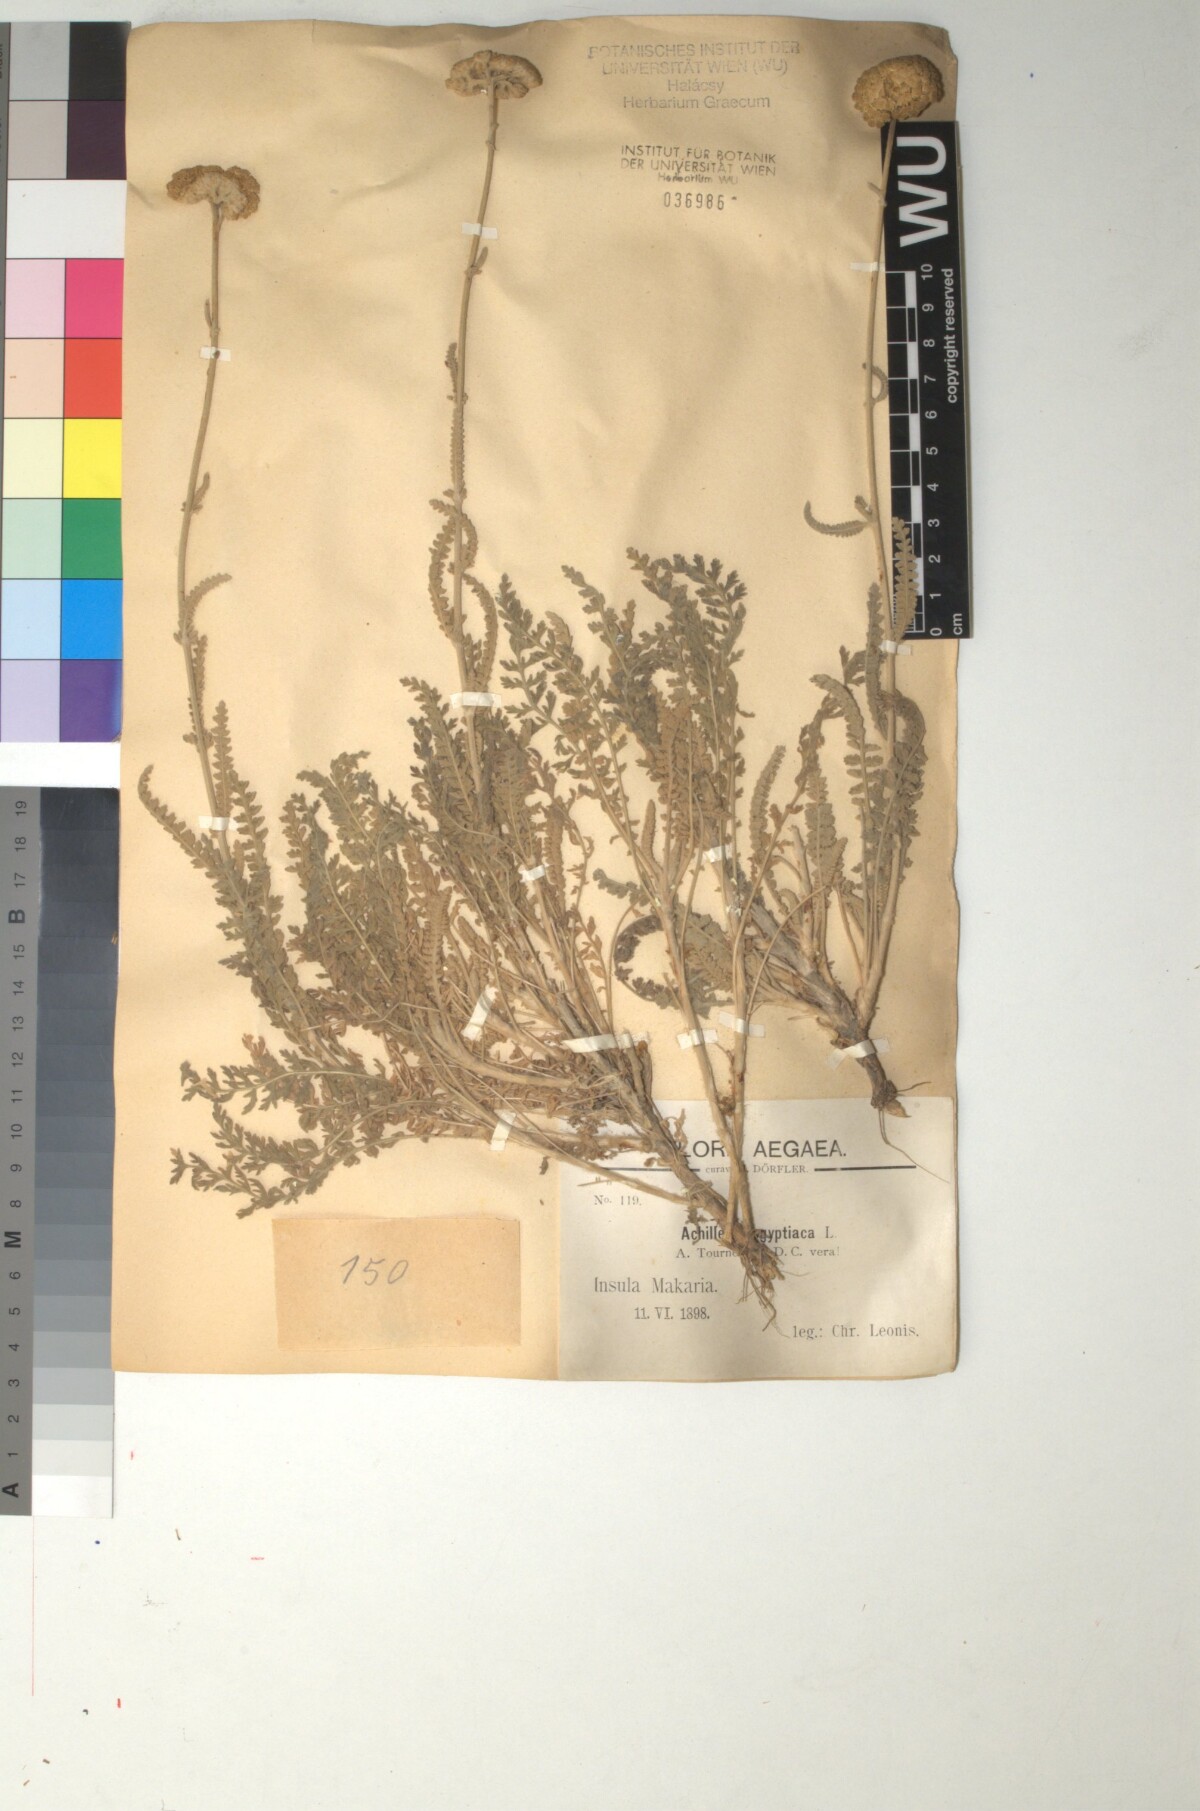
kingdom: Plantae
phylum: Tracheophyta
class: Magnoliopsida
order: Asterales
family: Asteraceae
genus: Achillea
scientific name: Achillea aegyptiaca
